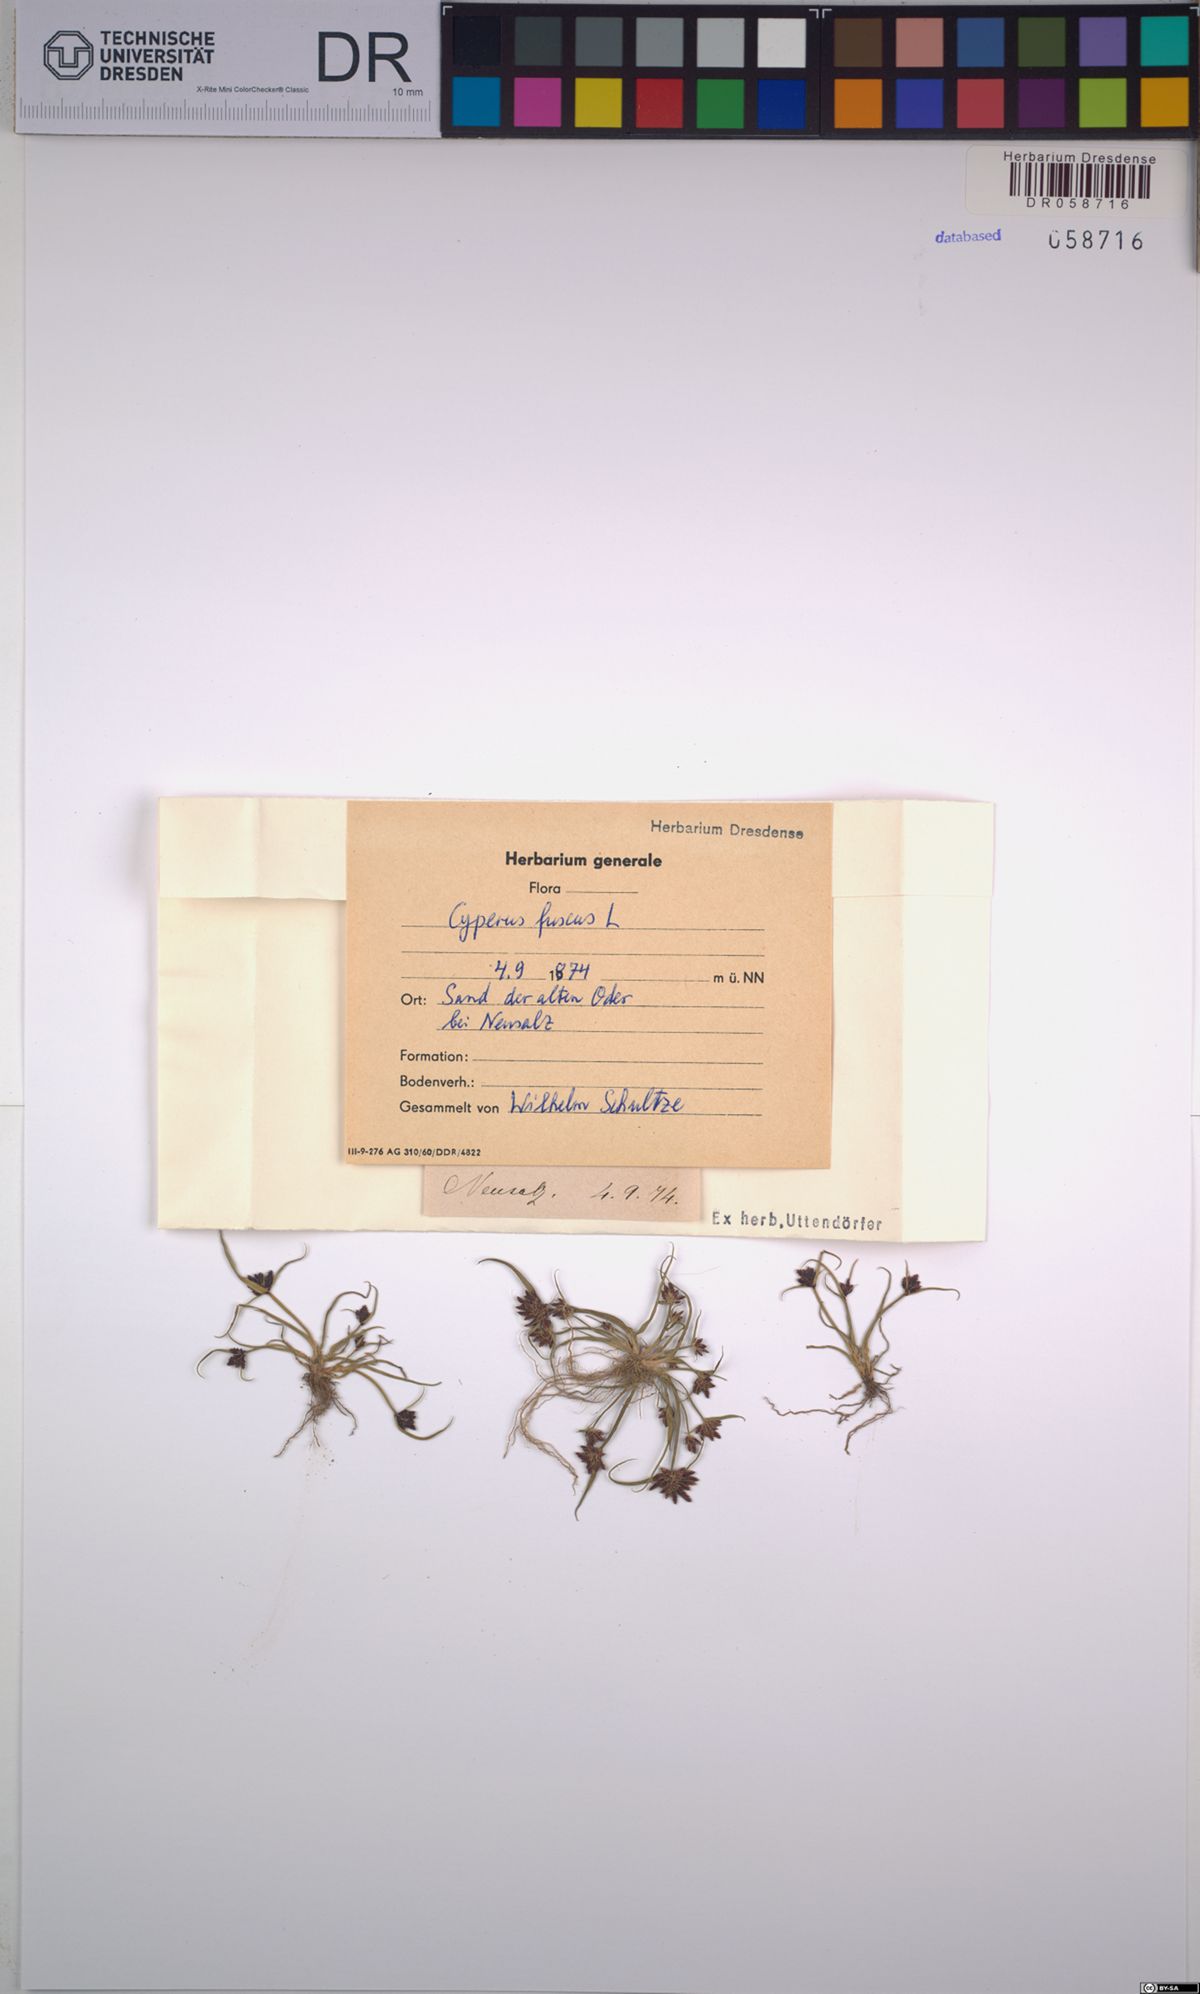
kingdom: Plantae
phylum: Tracheophyta
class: Liliopsida
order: Poales
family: Cyperaceae
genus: Cyperus
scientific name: Cyperus fuscus
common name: Brown galingale
